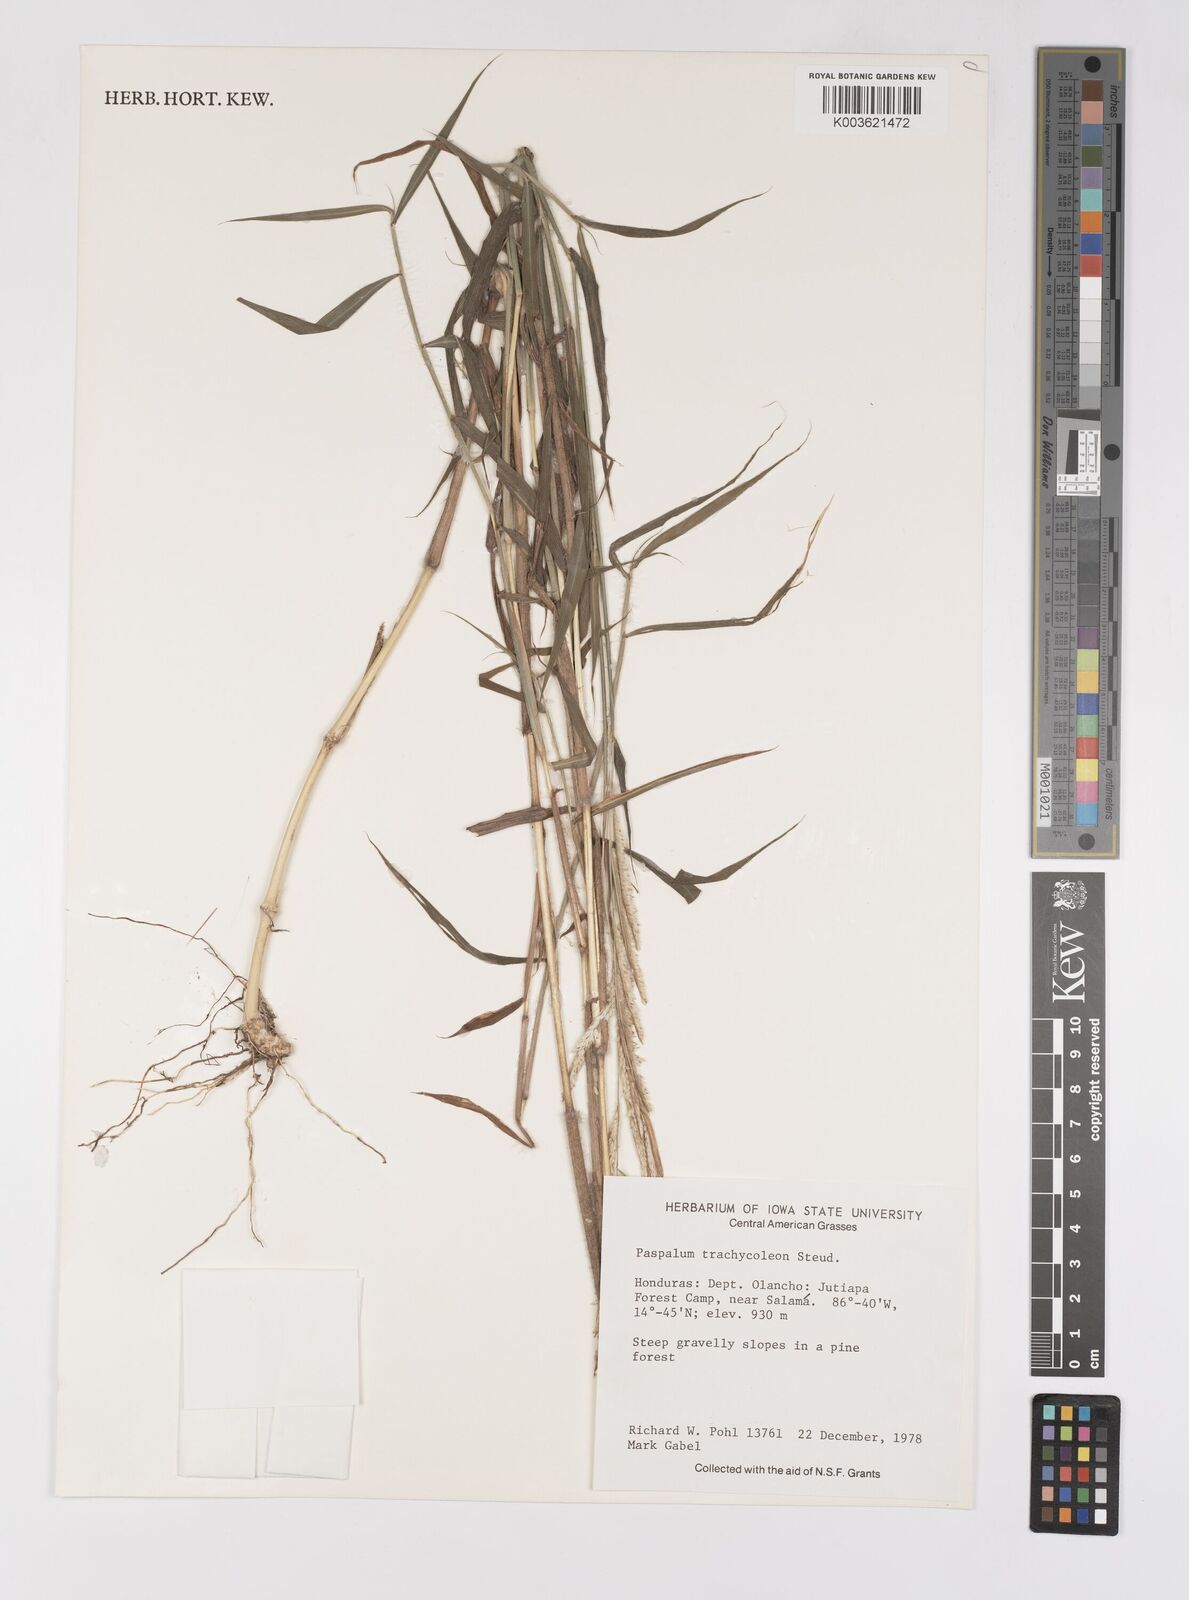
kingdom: Plantae
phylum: Tracheophyta
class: Liliopsida
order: Poales
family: Poaceae
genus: Paspalum
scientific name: Paspalum trachycoleon
